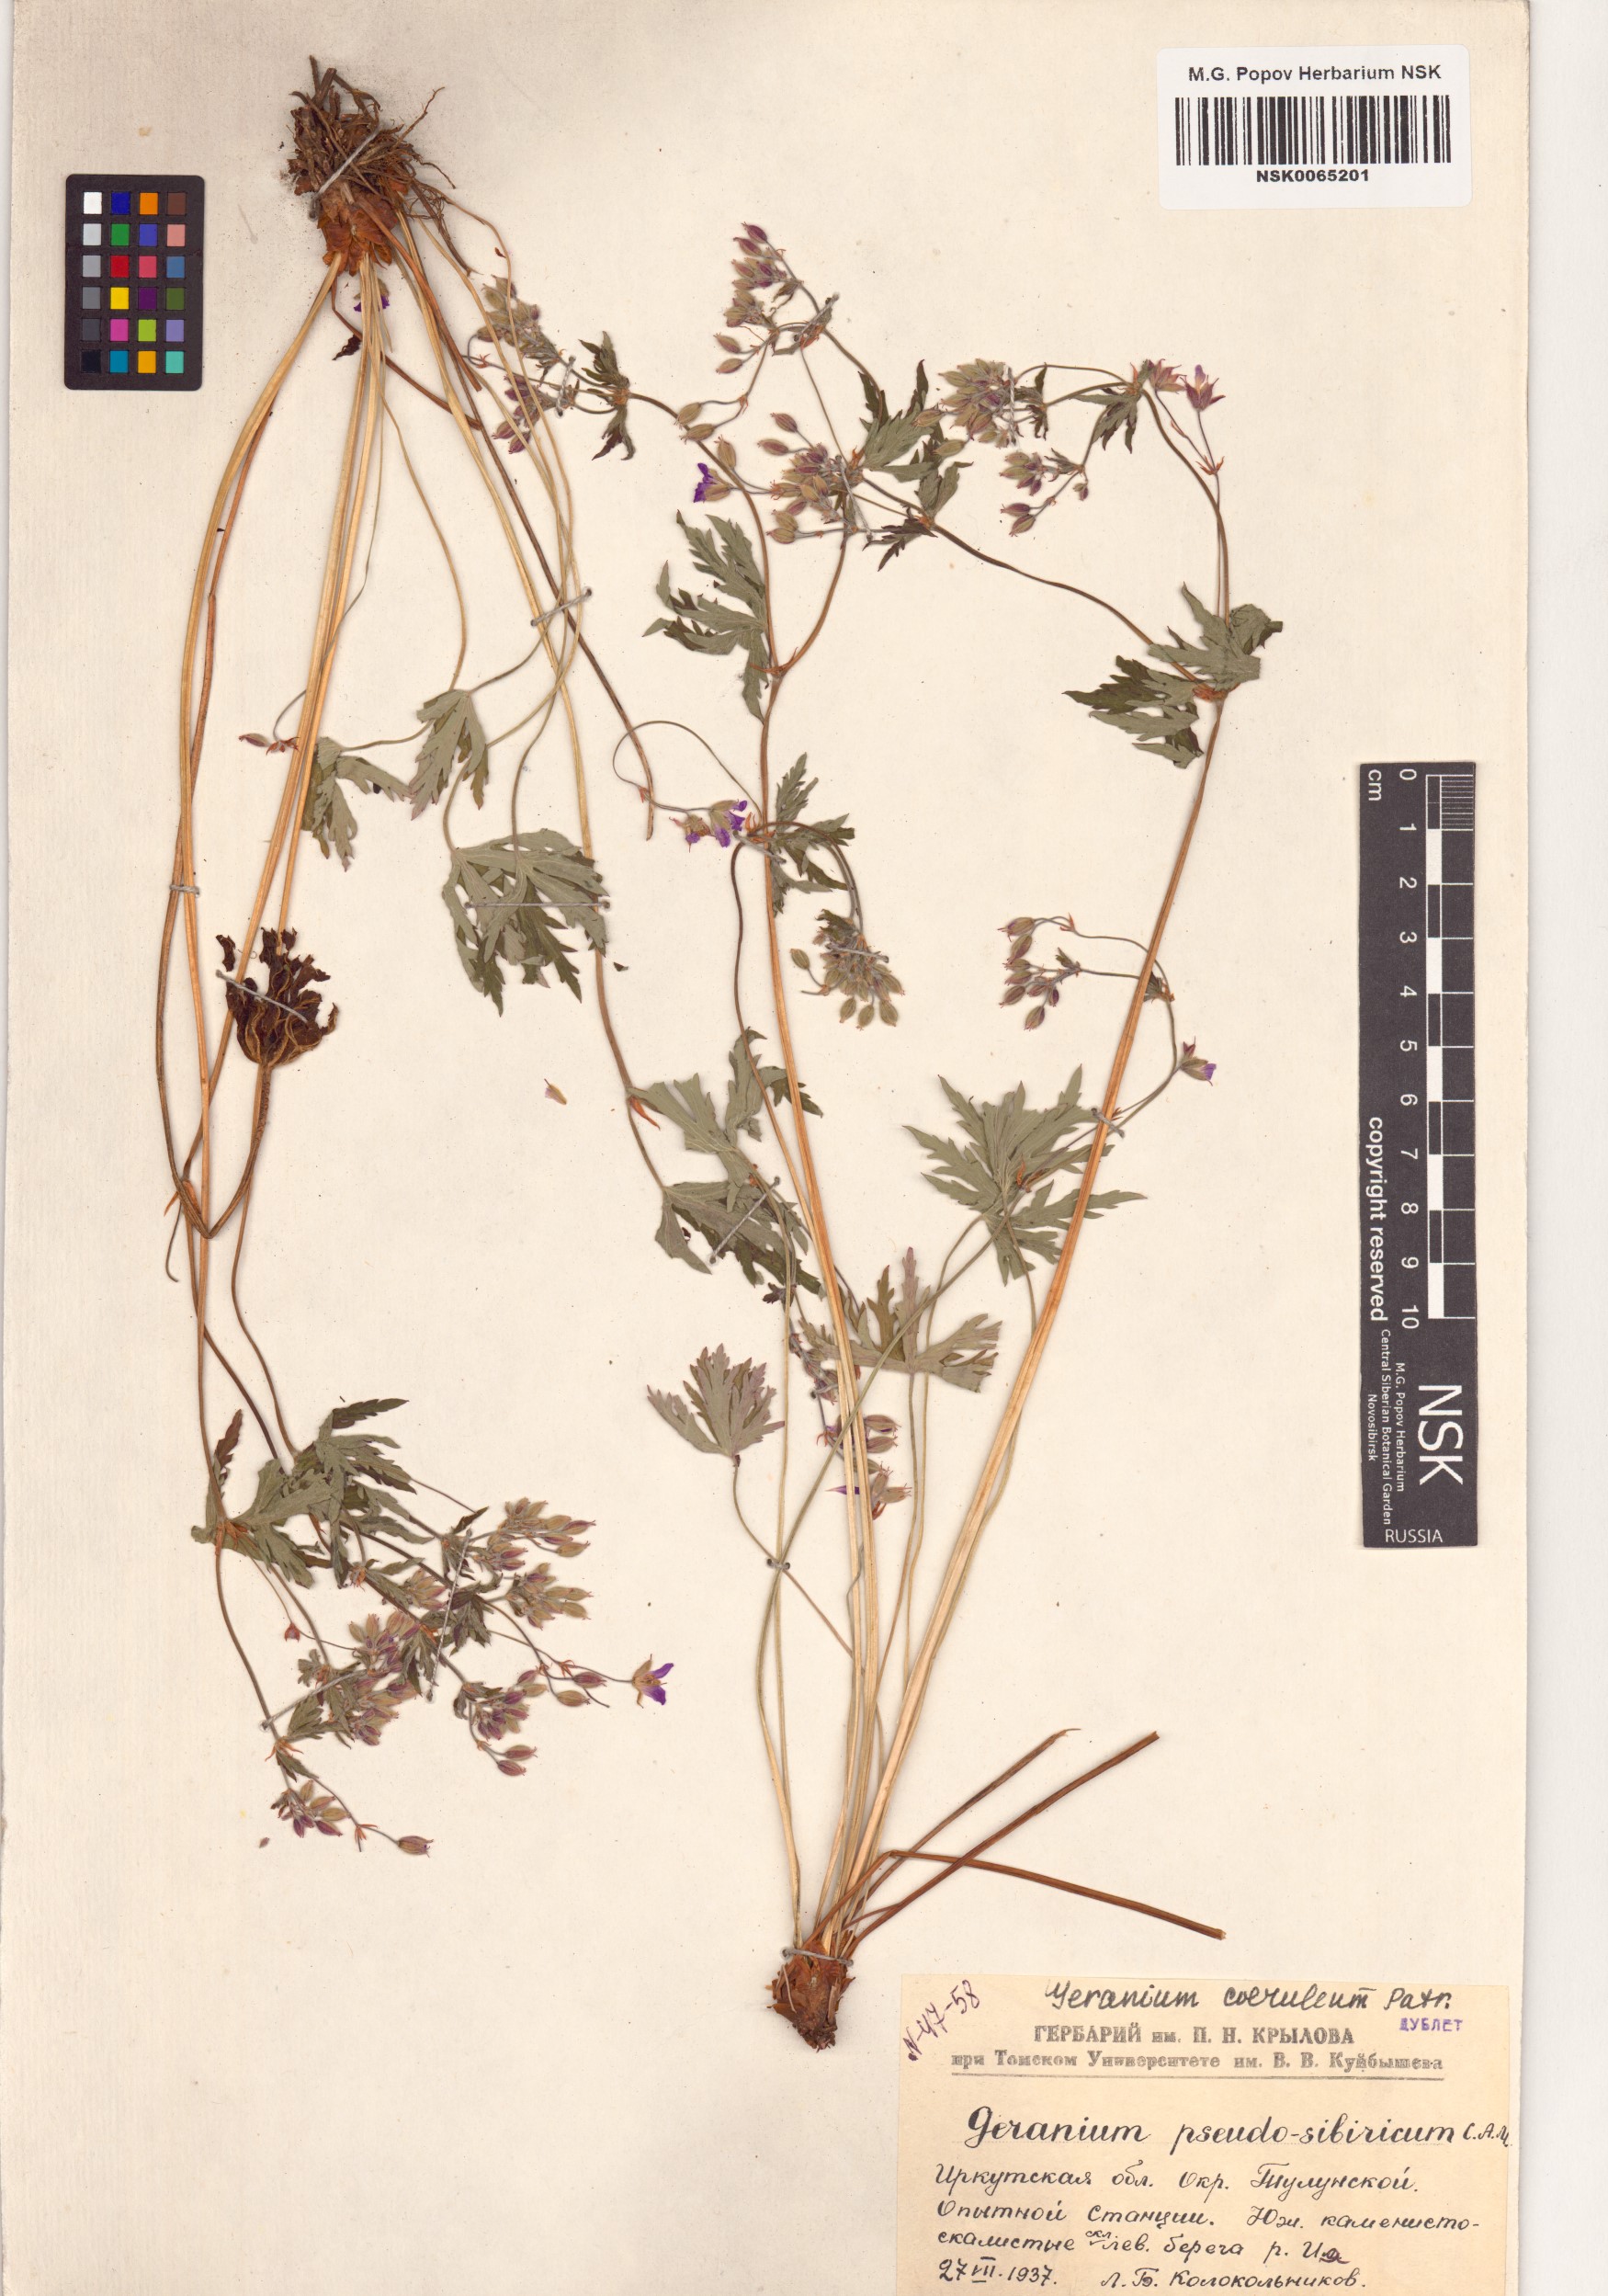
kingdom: Plantae
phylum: Tracheophyta
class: Magnoliopsida
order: Geraniales
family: Geraniaceae
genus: Geranium
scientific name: Geranium pseudosibiricum
